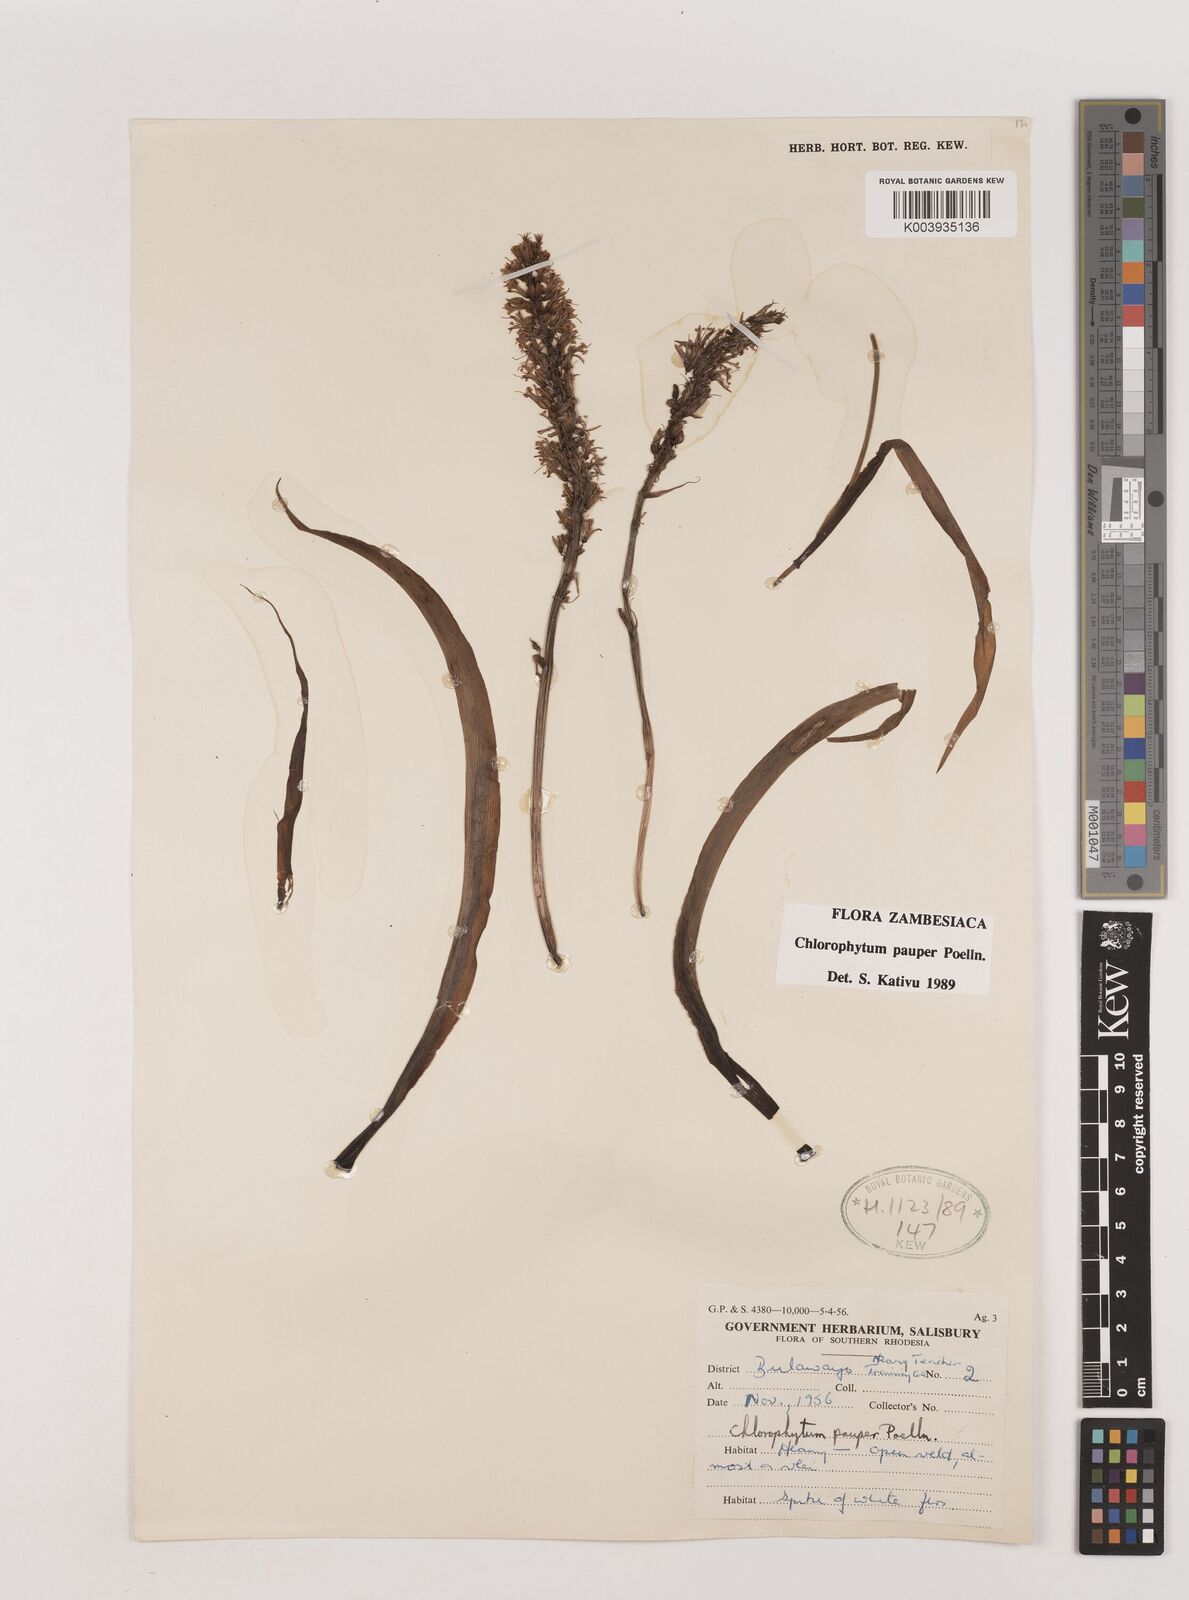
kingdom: Plantae
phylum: Tracheophyta
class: Liliopsida
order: Asparagales
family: Asparagaceae
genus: Chlorophytum
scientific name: Chlorophytum pauper
